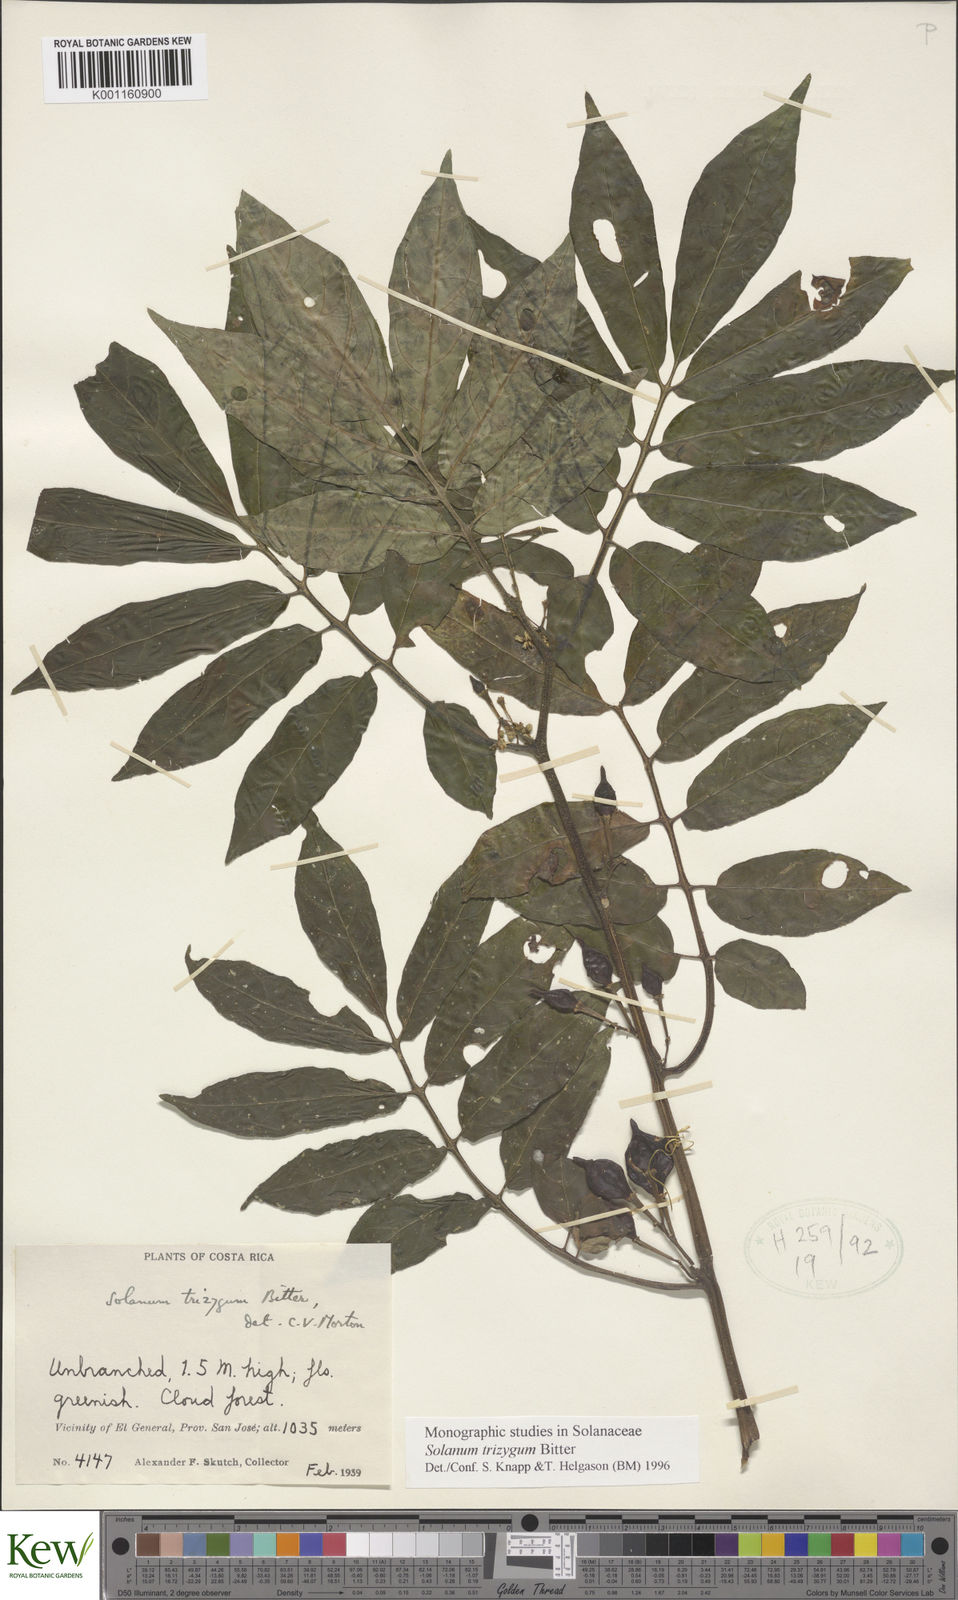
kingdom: Plantae
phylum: Tracheophyta
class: Magnoliopsida
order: Solanales
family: Solanaceae
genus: Solanum
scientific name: Solanum trizygum
